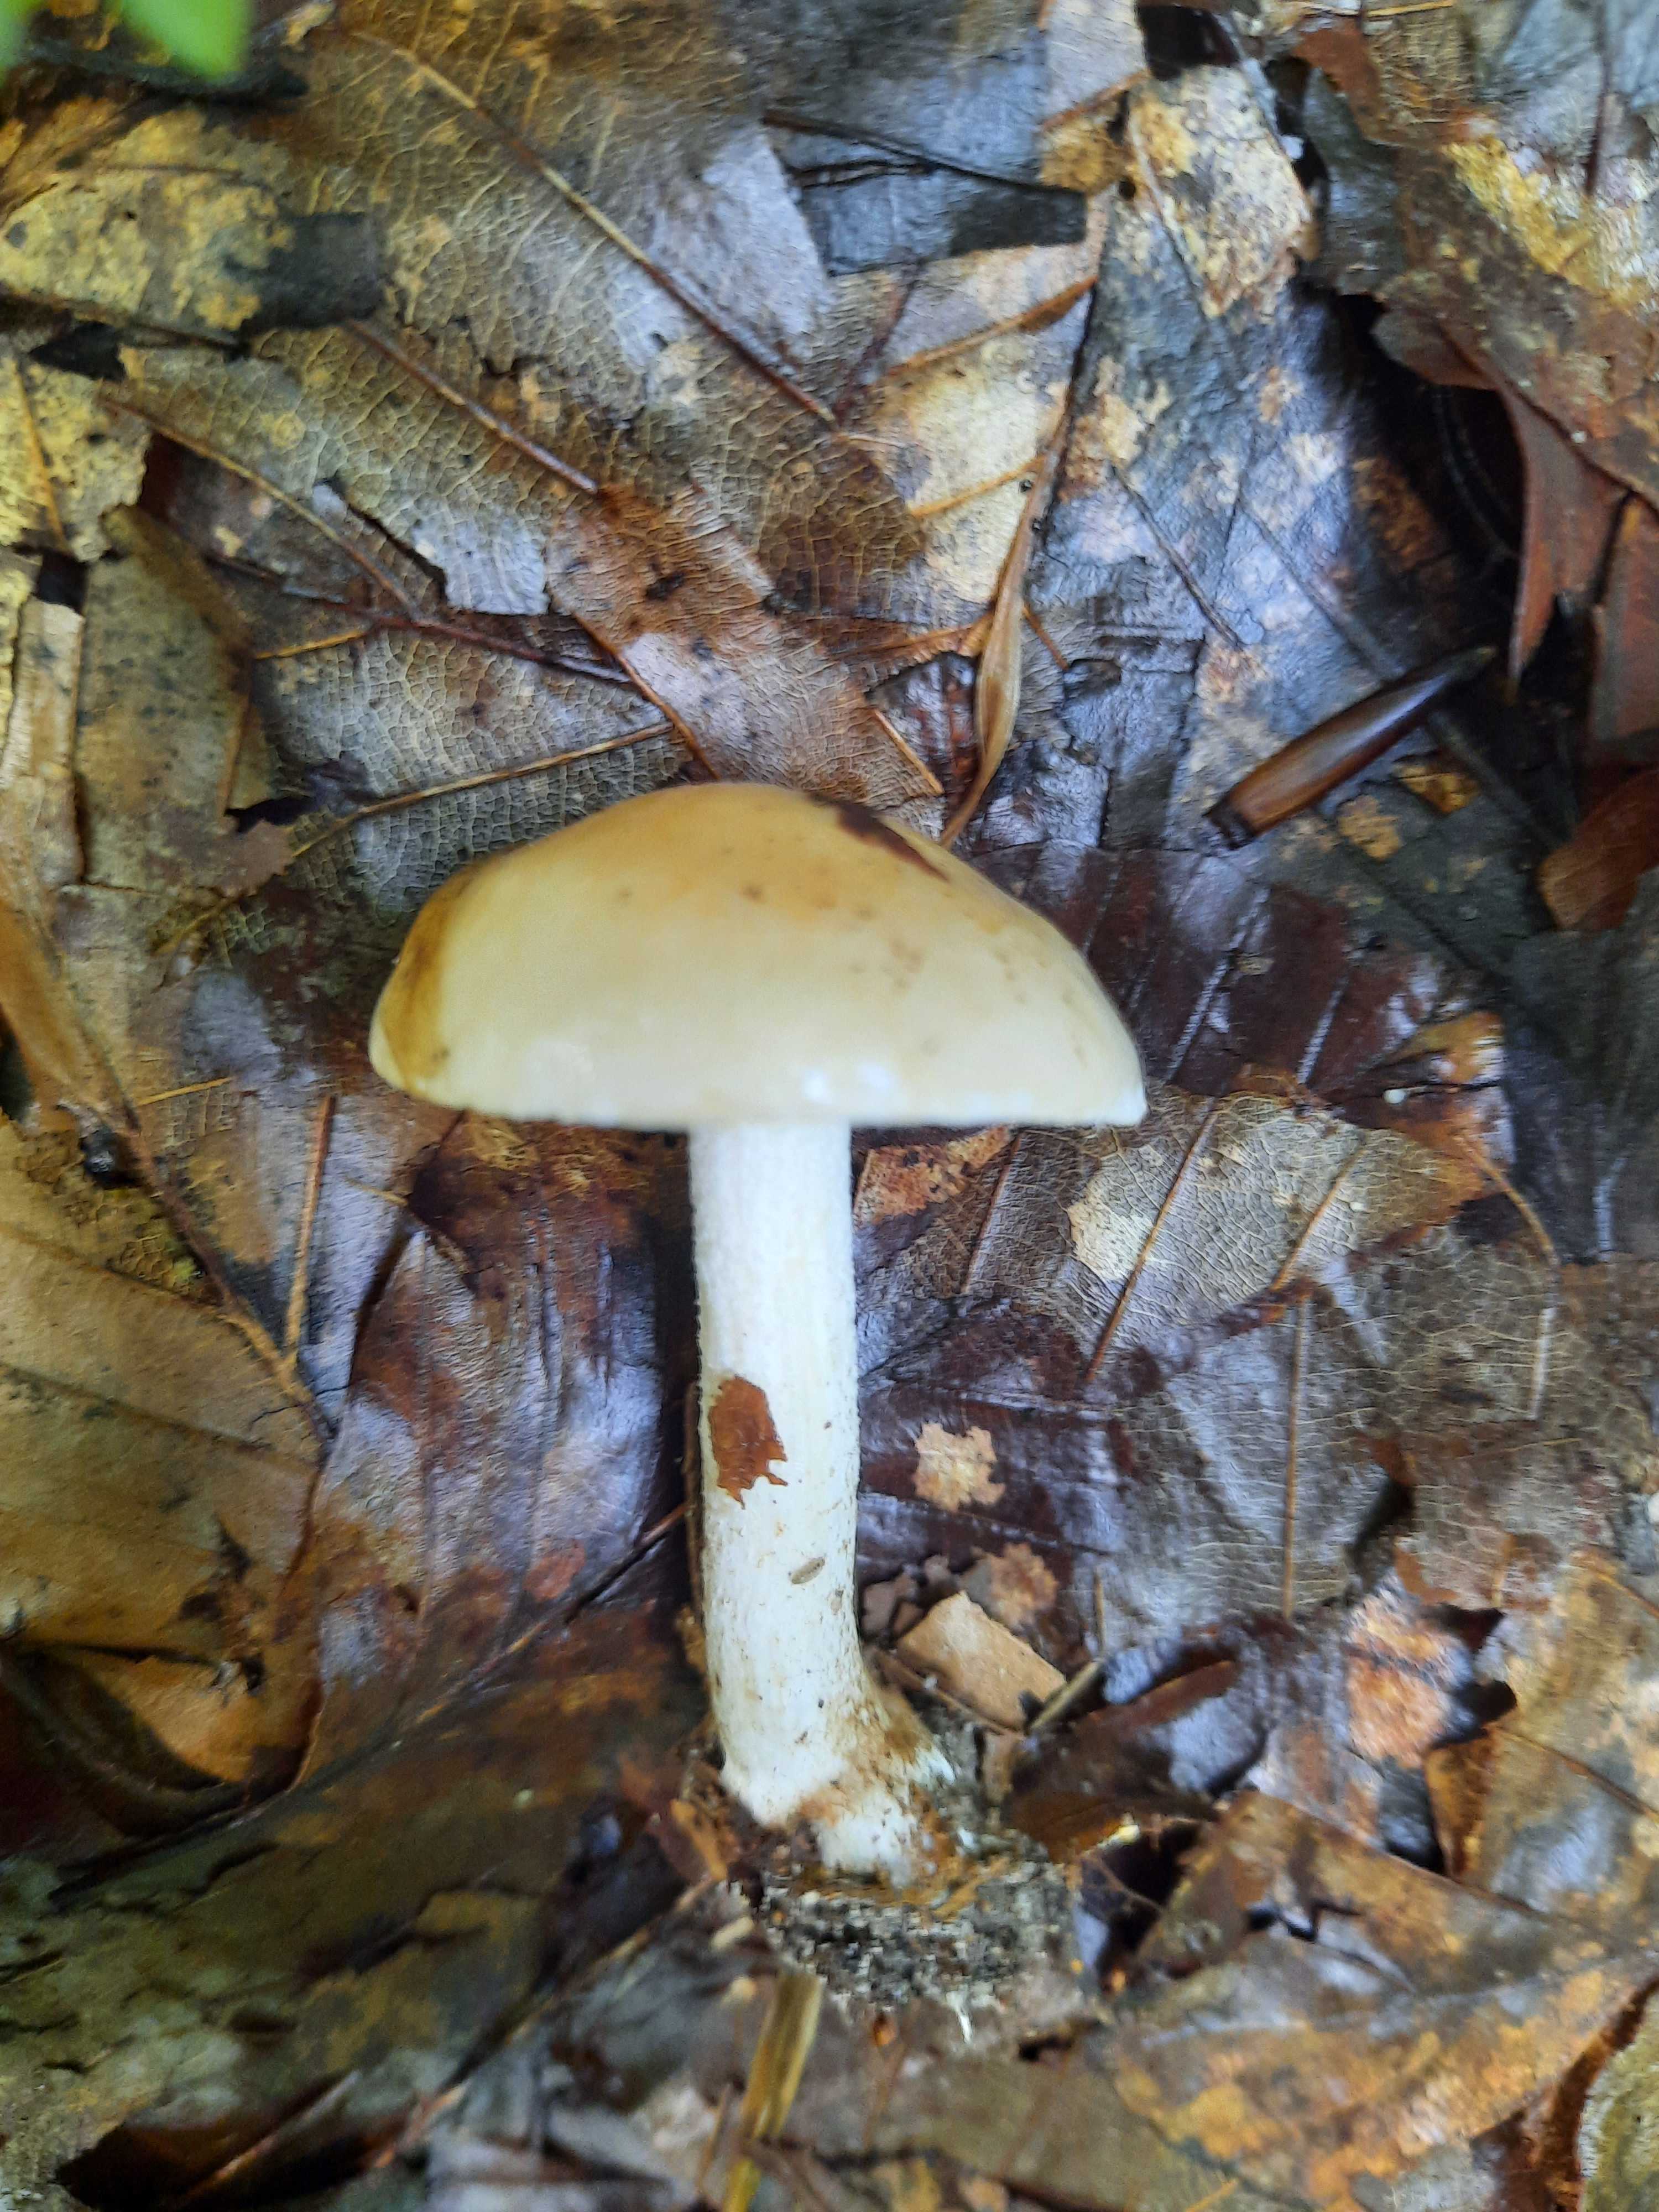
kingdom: Fungi
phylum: Basidiomycota
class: Agaricomycetes
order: Agaricales
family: Hymenogastraceae
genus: Hebeloma
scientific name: Hebeloma
